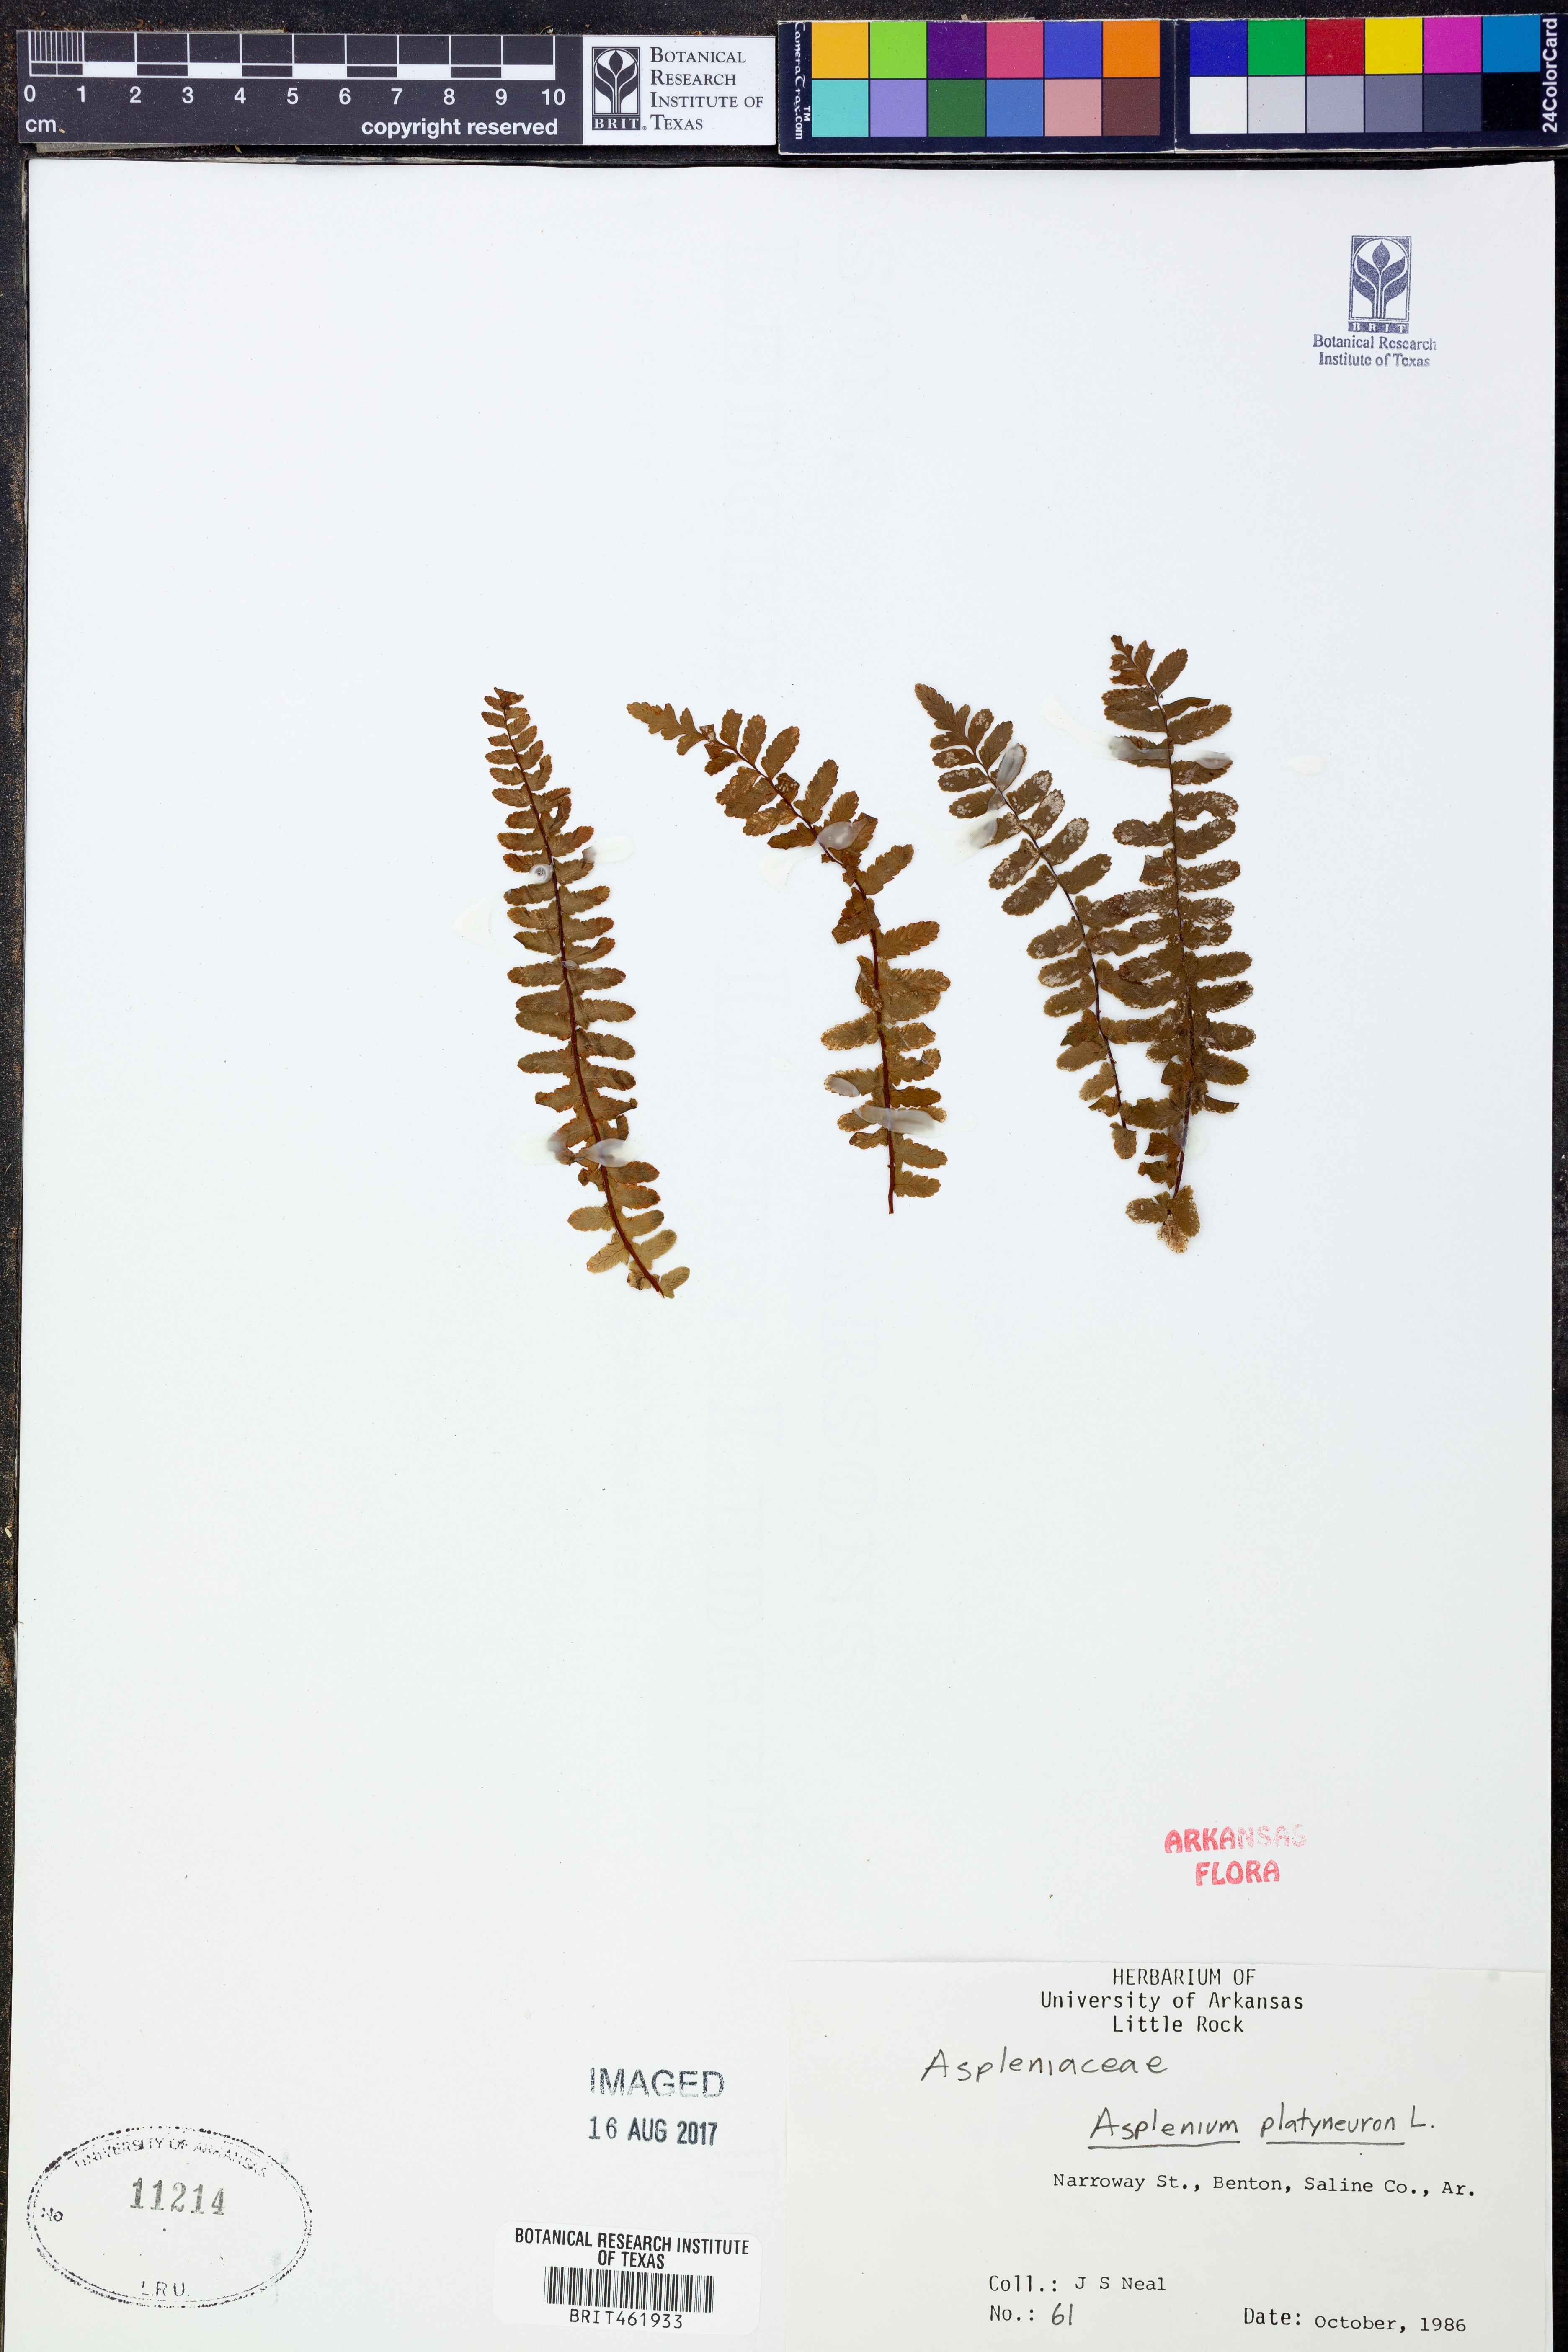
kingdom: Plantae
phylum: Tracheophyta
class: Polypodiopsida
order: Polypodiales
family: Aspleniaceae
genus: Asplenium
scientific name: Asplenium platyneuron
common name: Ebony spleenwort
